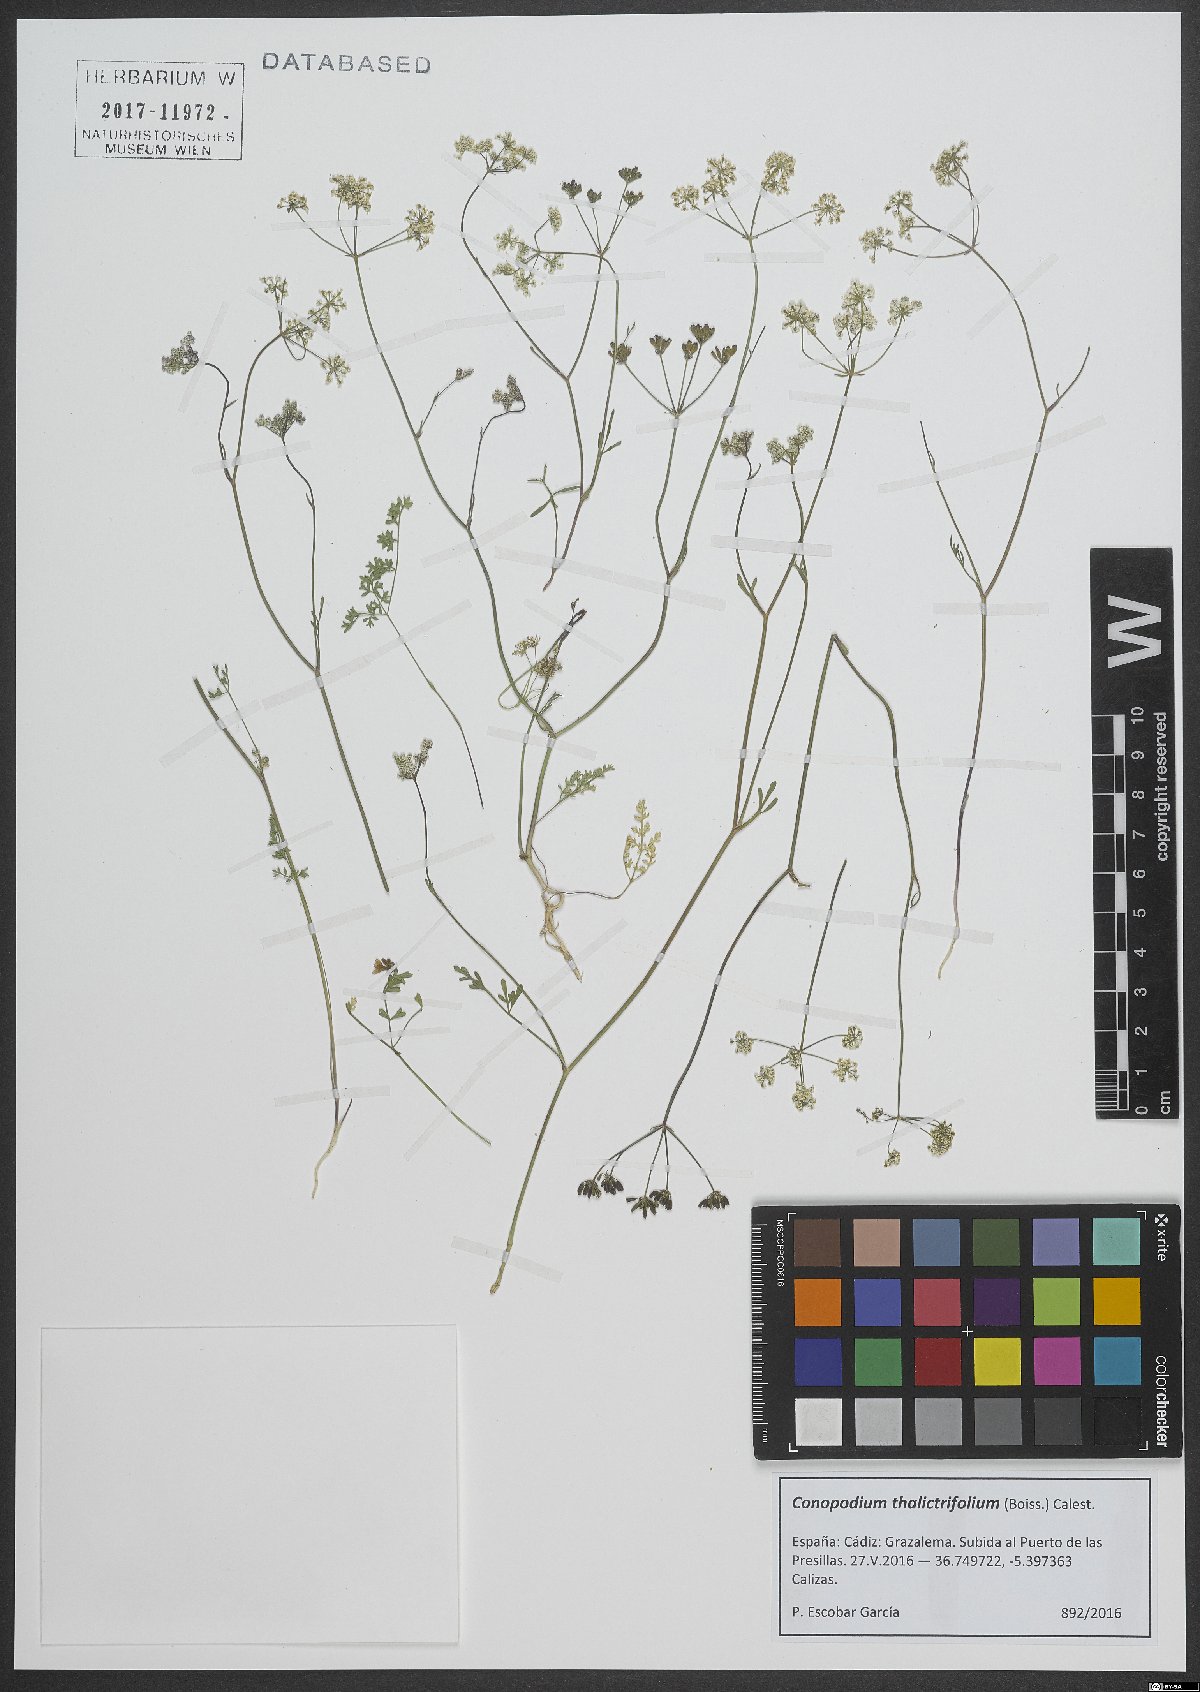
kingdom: Plantae
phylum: Tracheophyta
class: Magnoliopsida
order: Apiales
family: Apiaceae
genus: Conopodium
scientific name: Conopodium thalictrifolium
